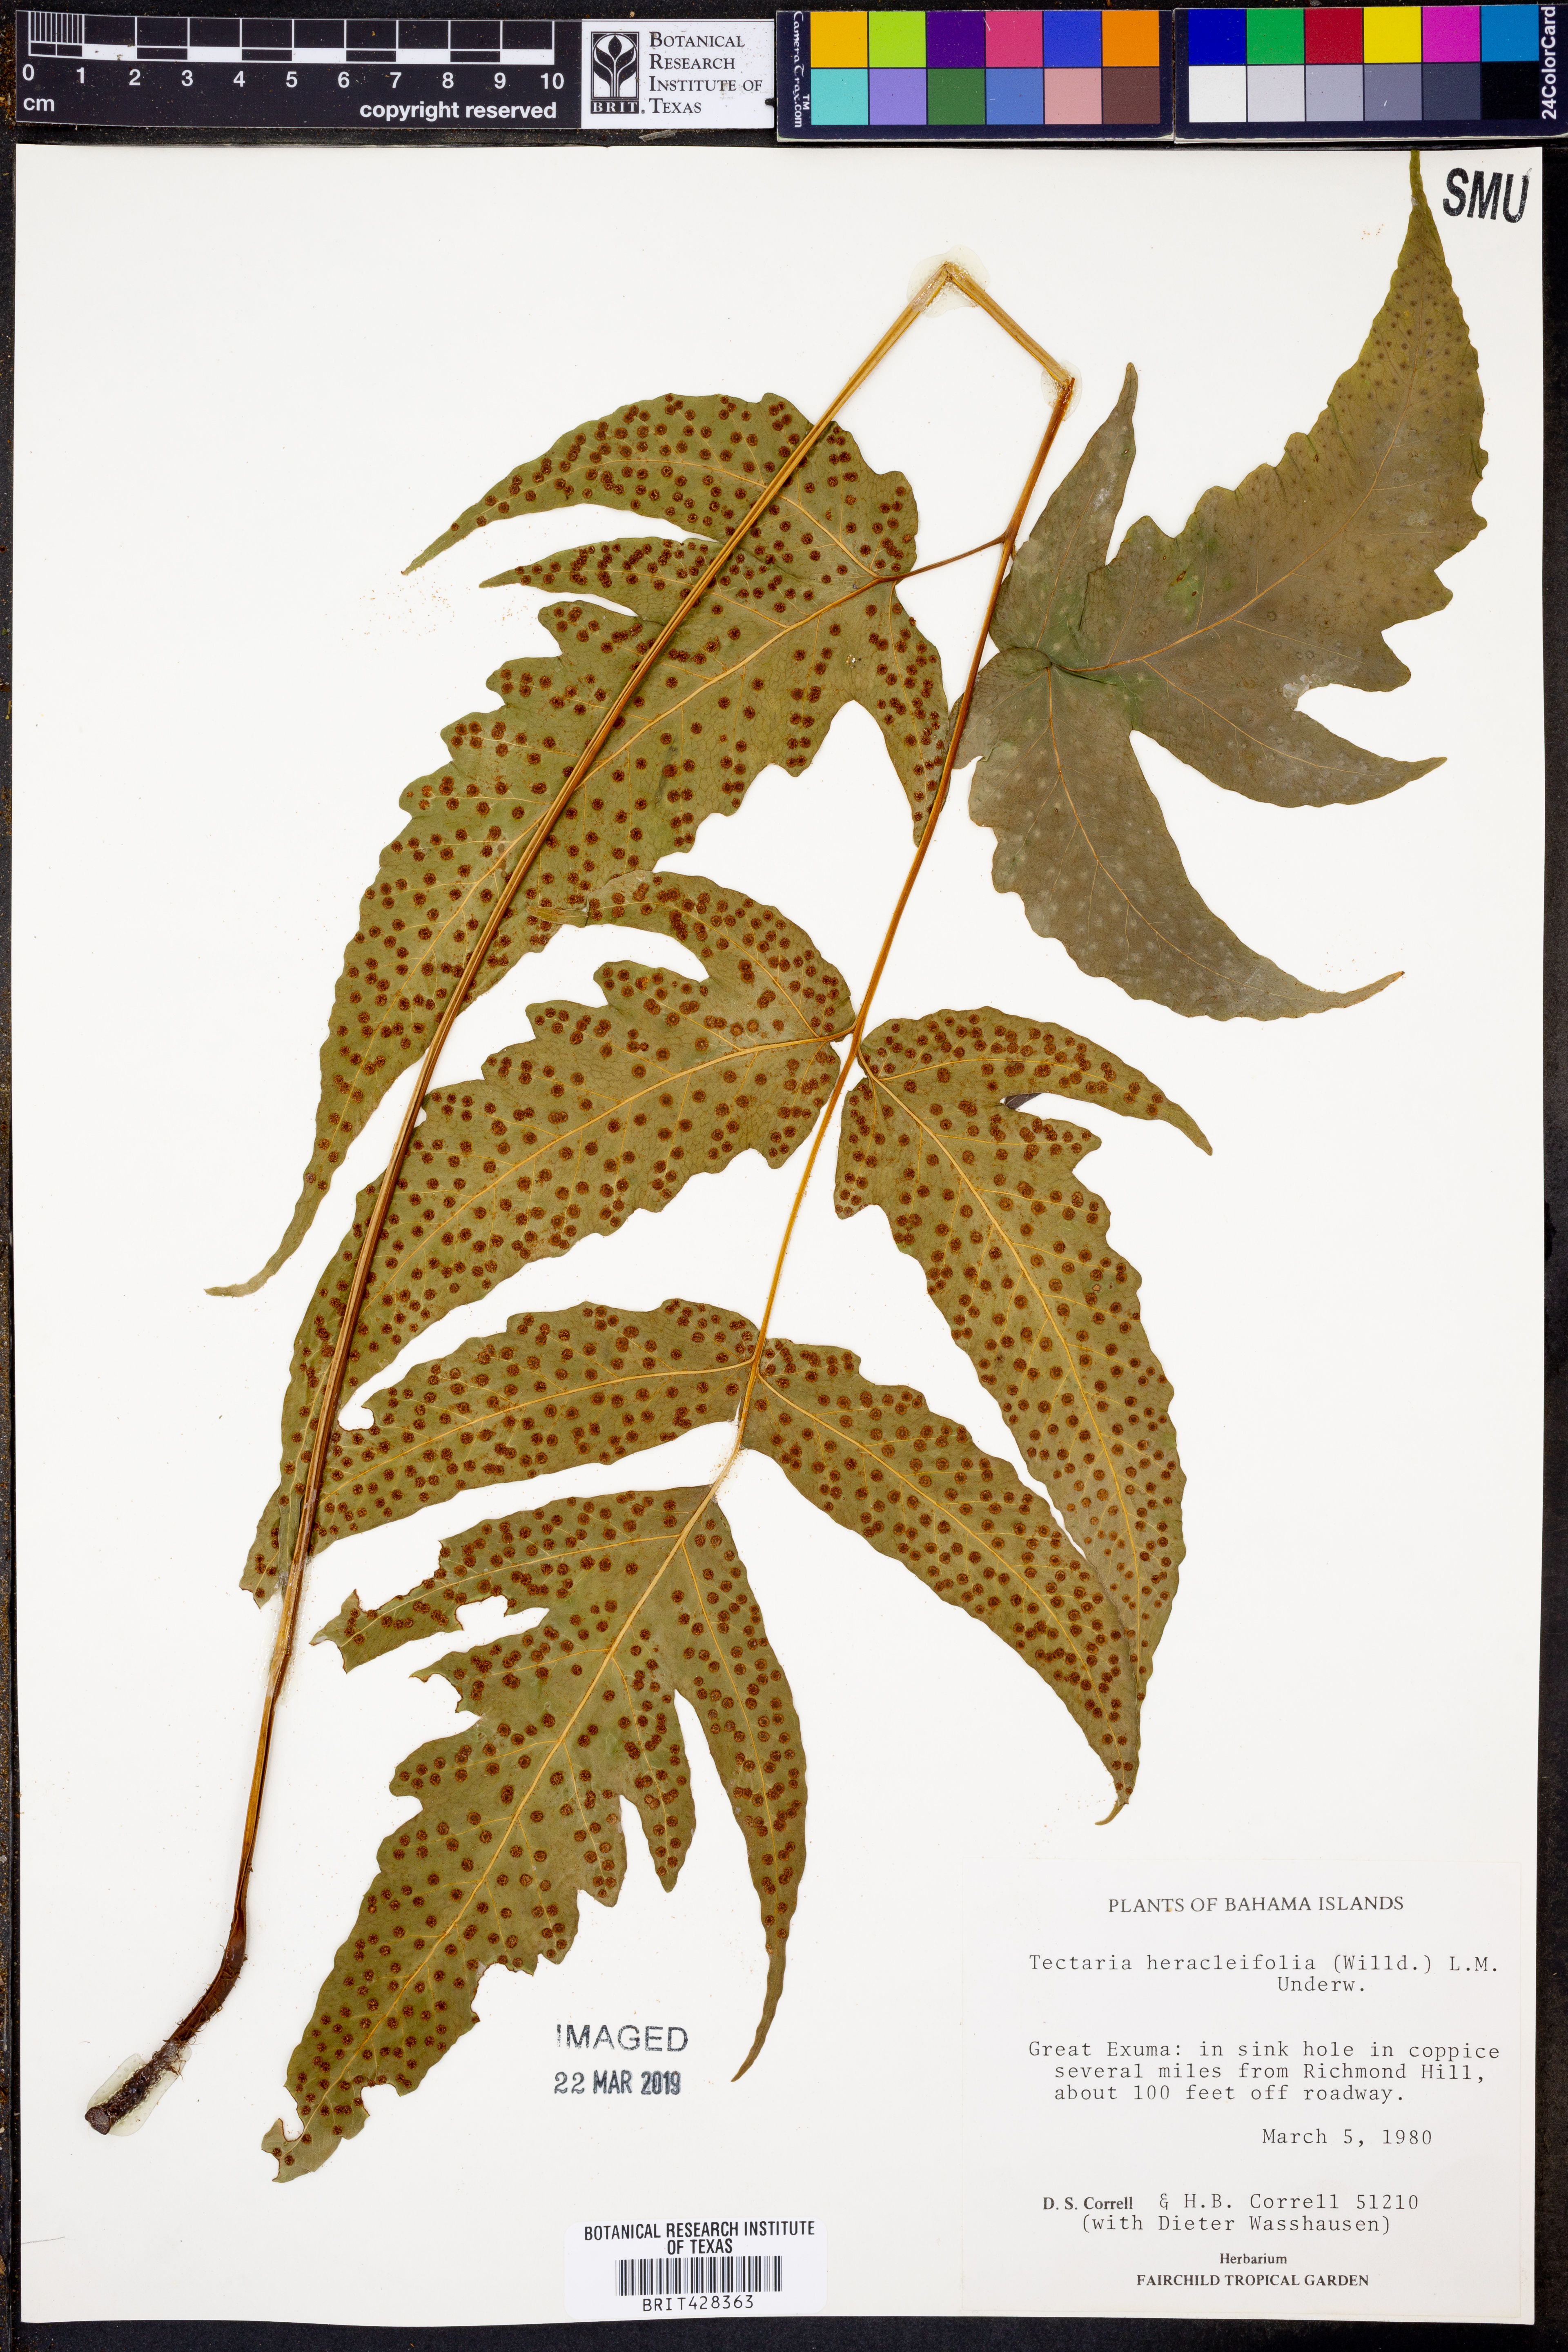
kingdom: Plantae
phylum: Tracheophyta
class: Polypodiopsida
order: Polypodiales
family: Tectariaceae
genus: Tectaria
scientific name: Tectaria heracleifolia
